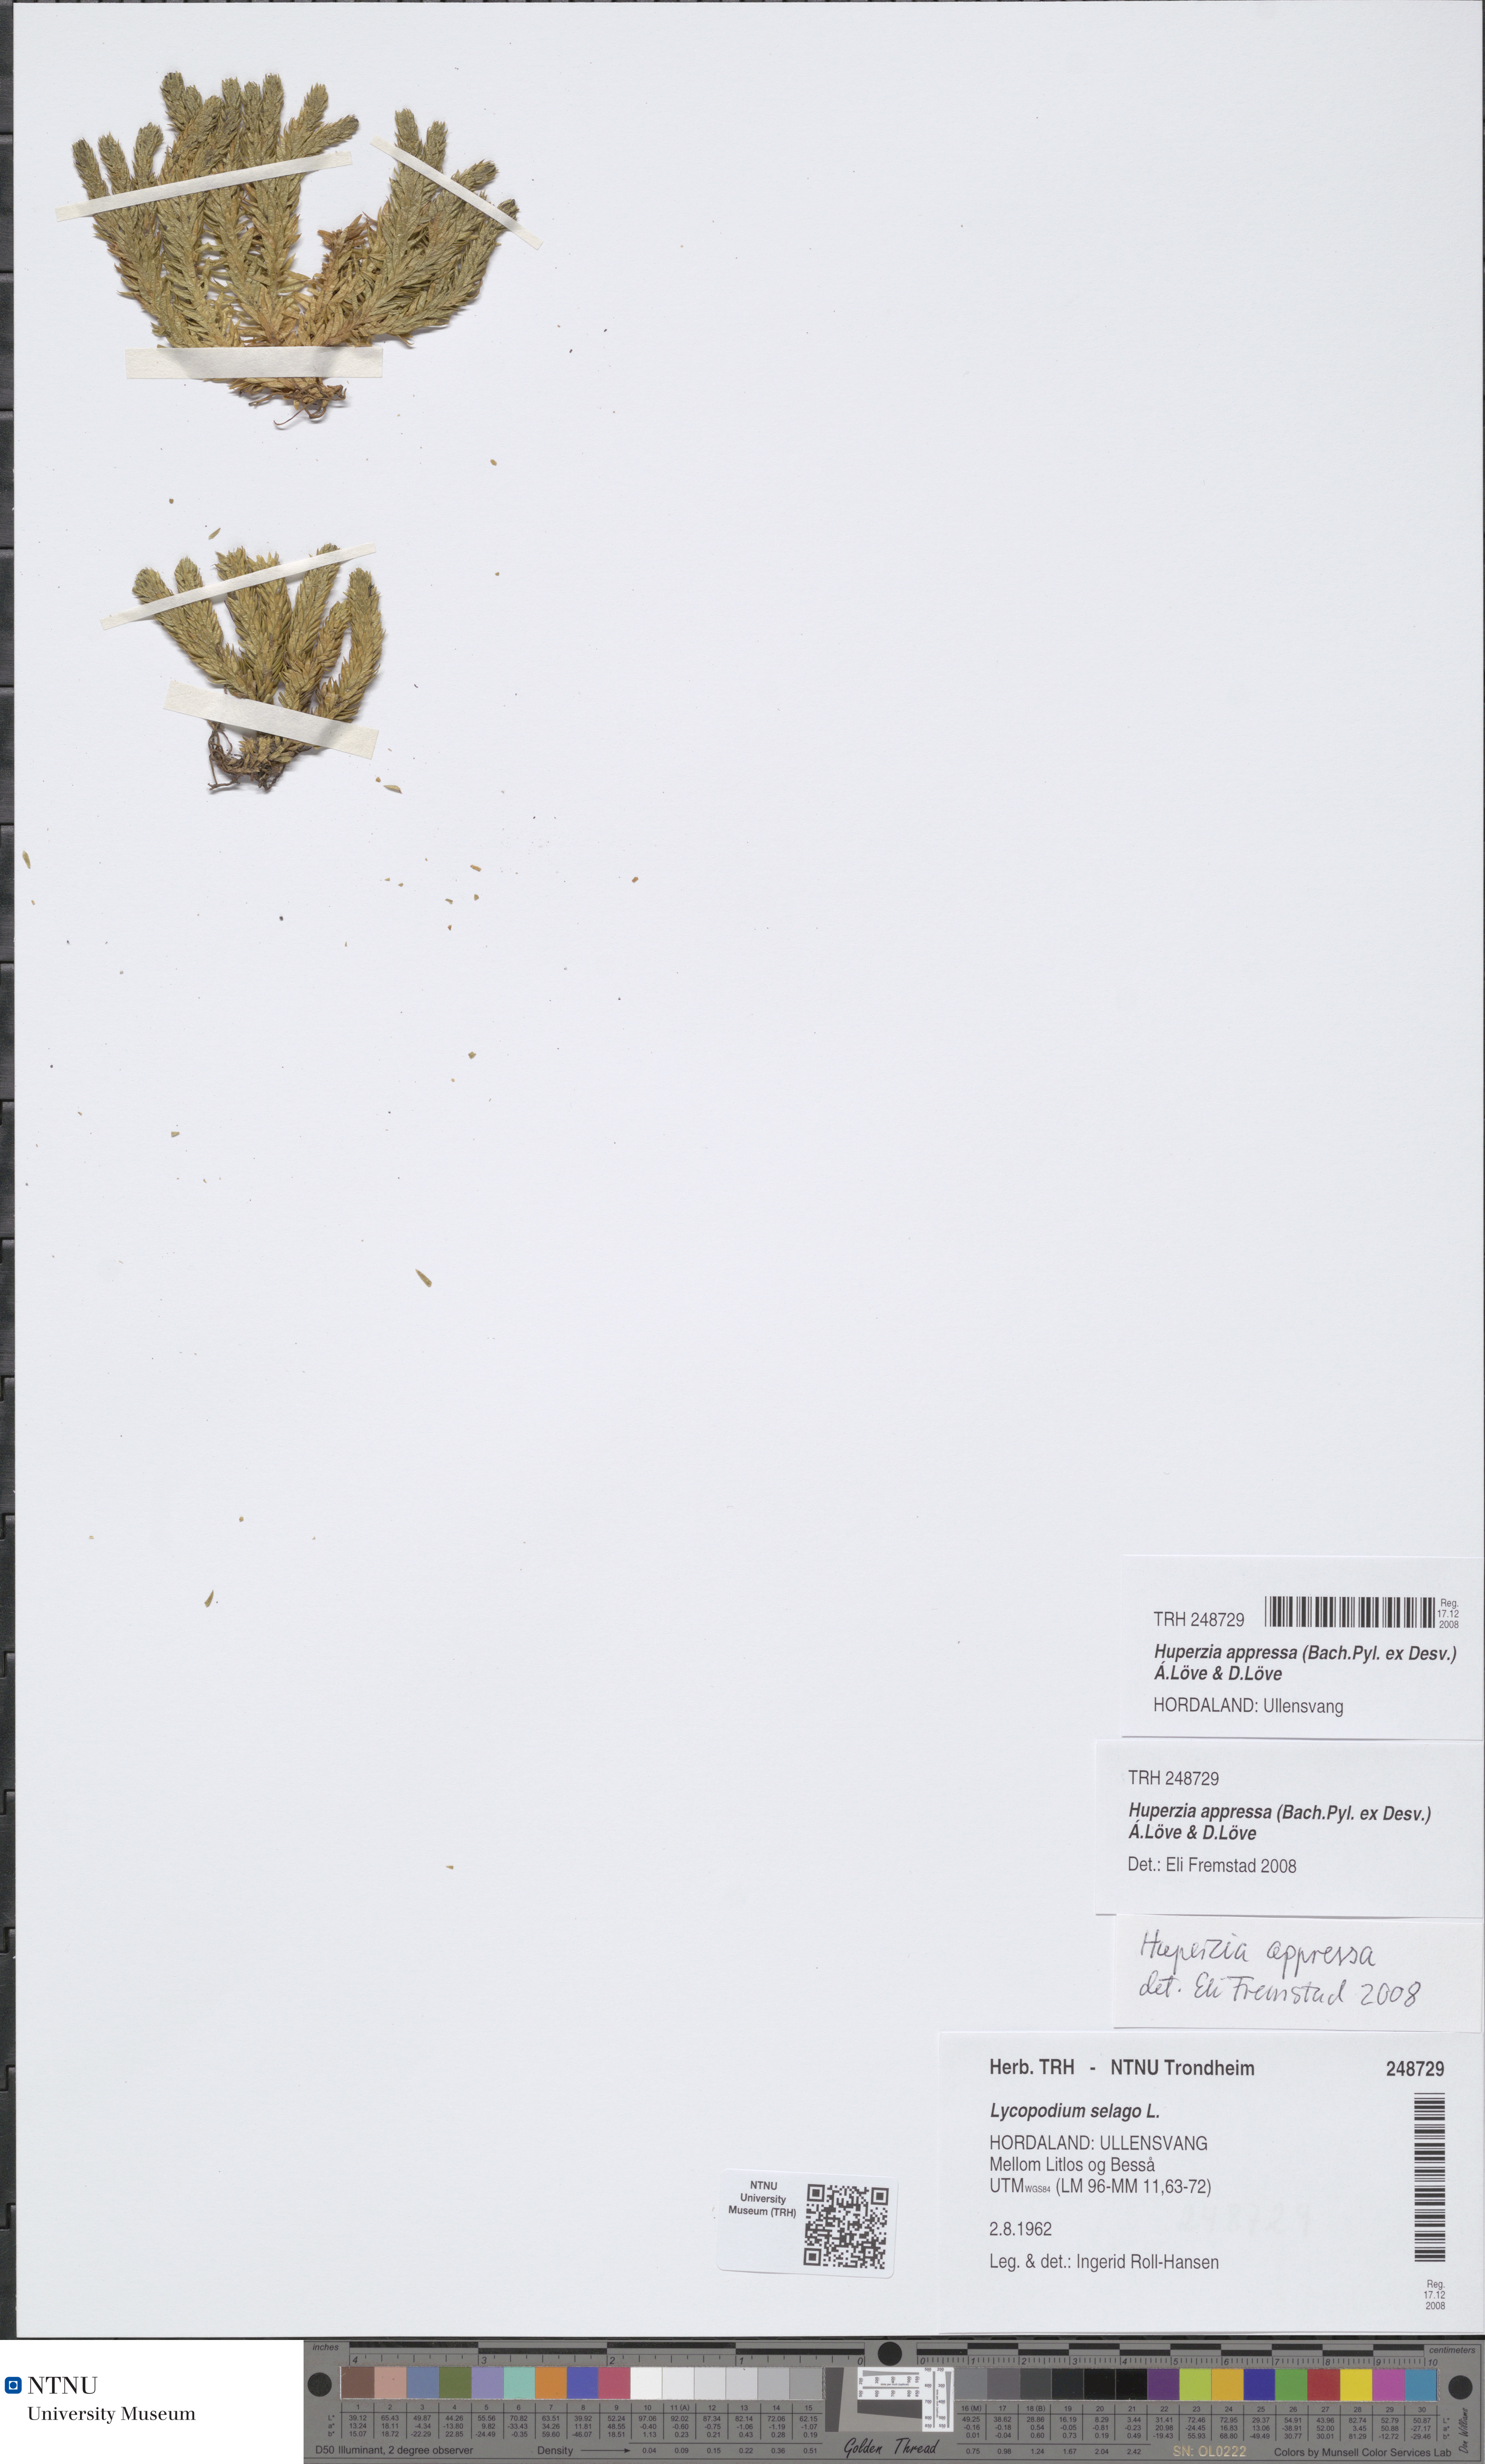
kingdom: Plantae
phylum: Tracheophyta
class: Lycopodiopsida
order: Lycopodiales
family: Lycopodiaceae
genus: Huperzia
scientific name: Huperzia selago
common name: Northern firmoss
